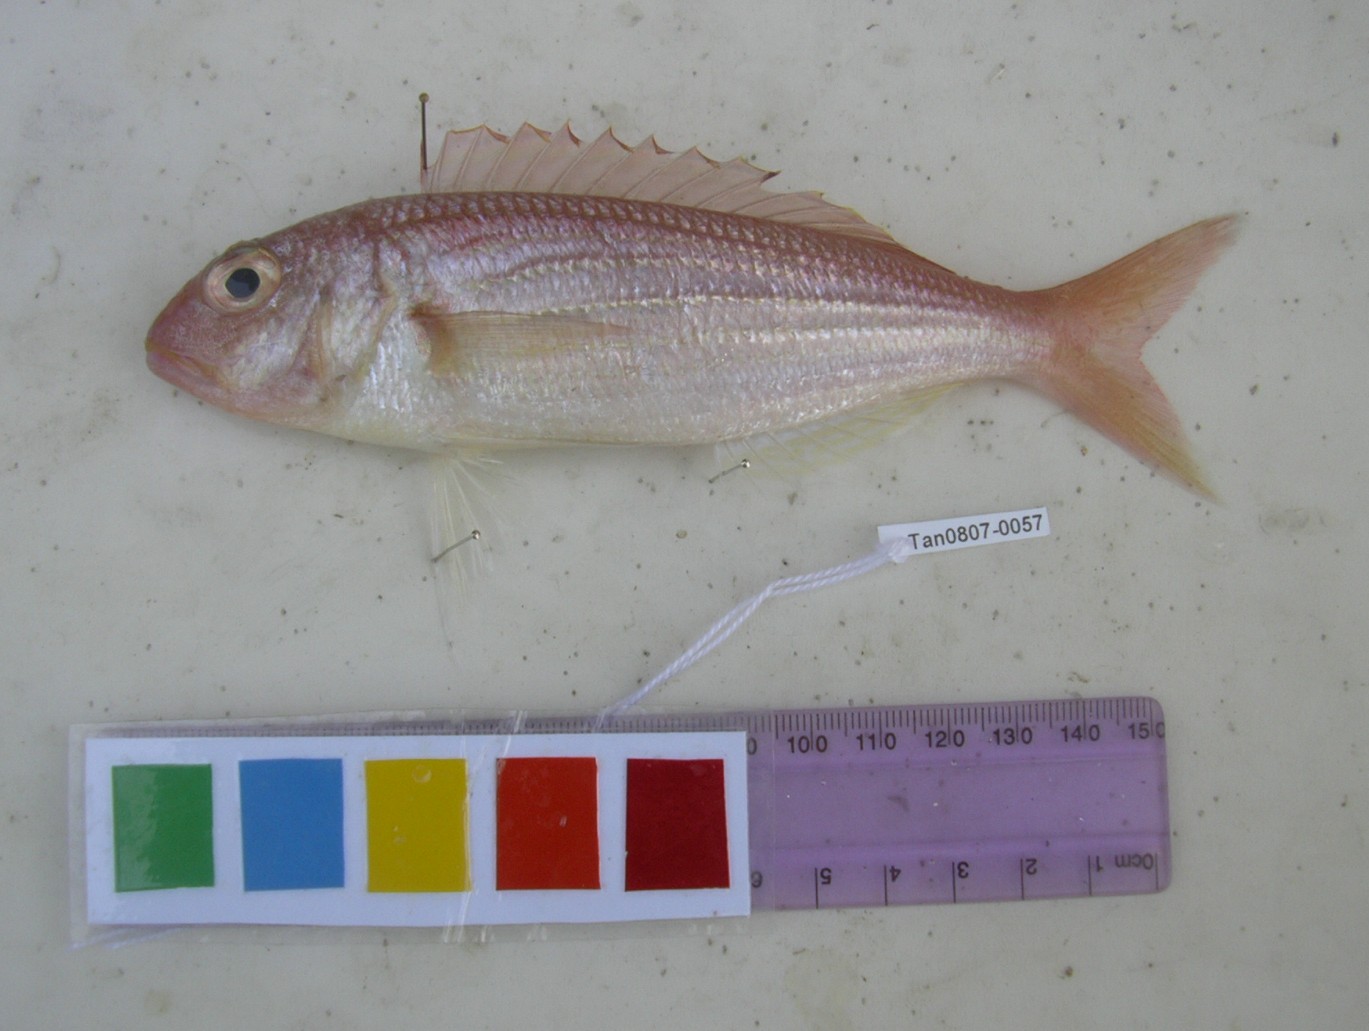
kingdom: Animalia
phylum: Chordata
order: Perciformes
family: Nemipteridae
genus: Nemipterus
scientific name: Nemipterus bipunctatus
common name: Delagoa threadfin bream
